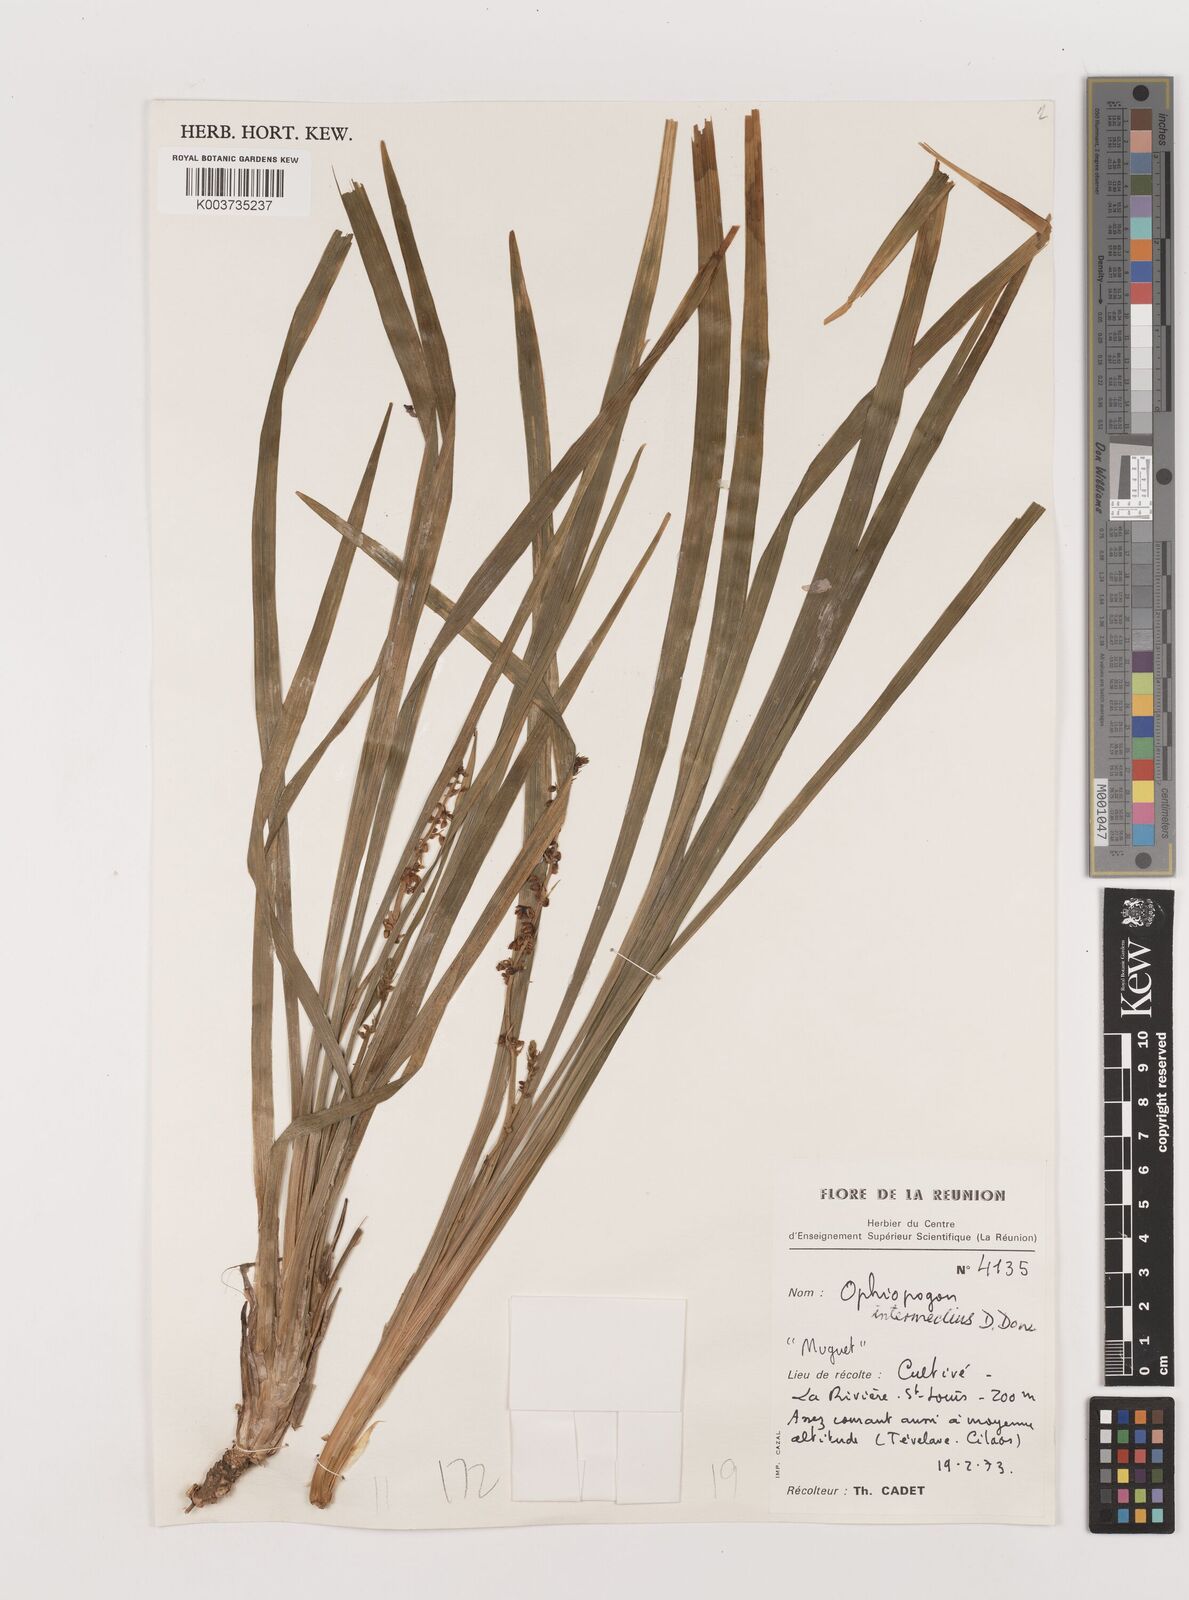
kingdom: Plantae
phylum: Tracheophyta
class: Liliopsida
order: Asparagales
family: Asparagaceae
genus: Ophiopogon
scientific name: Ophiopogon intermedius
